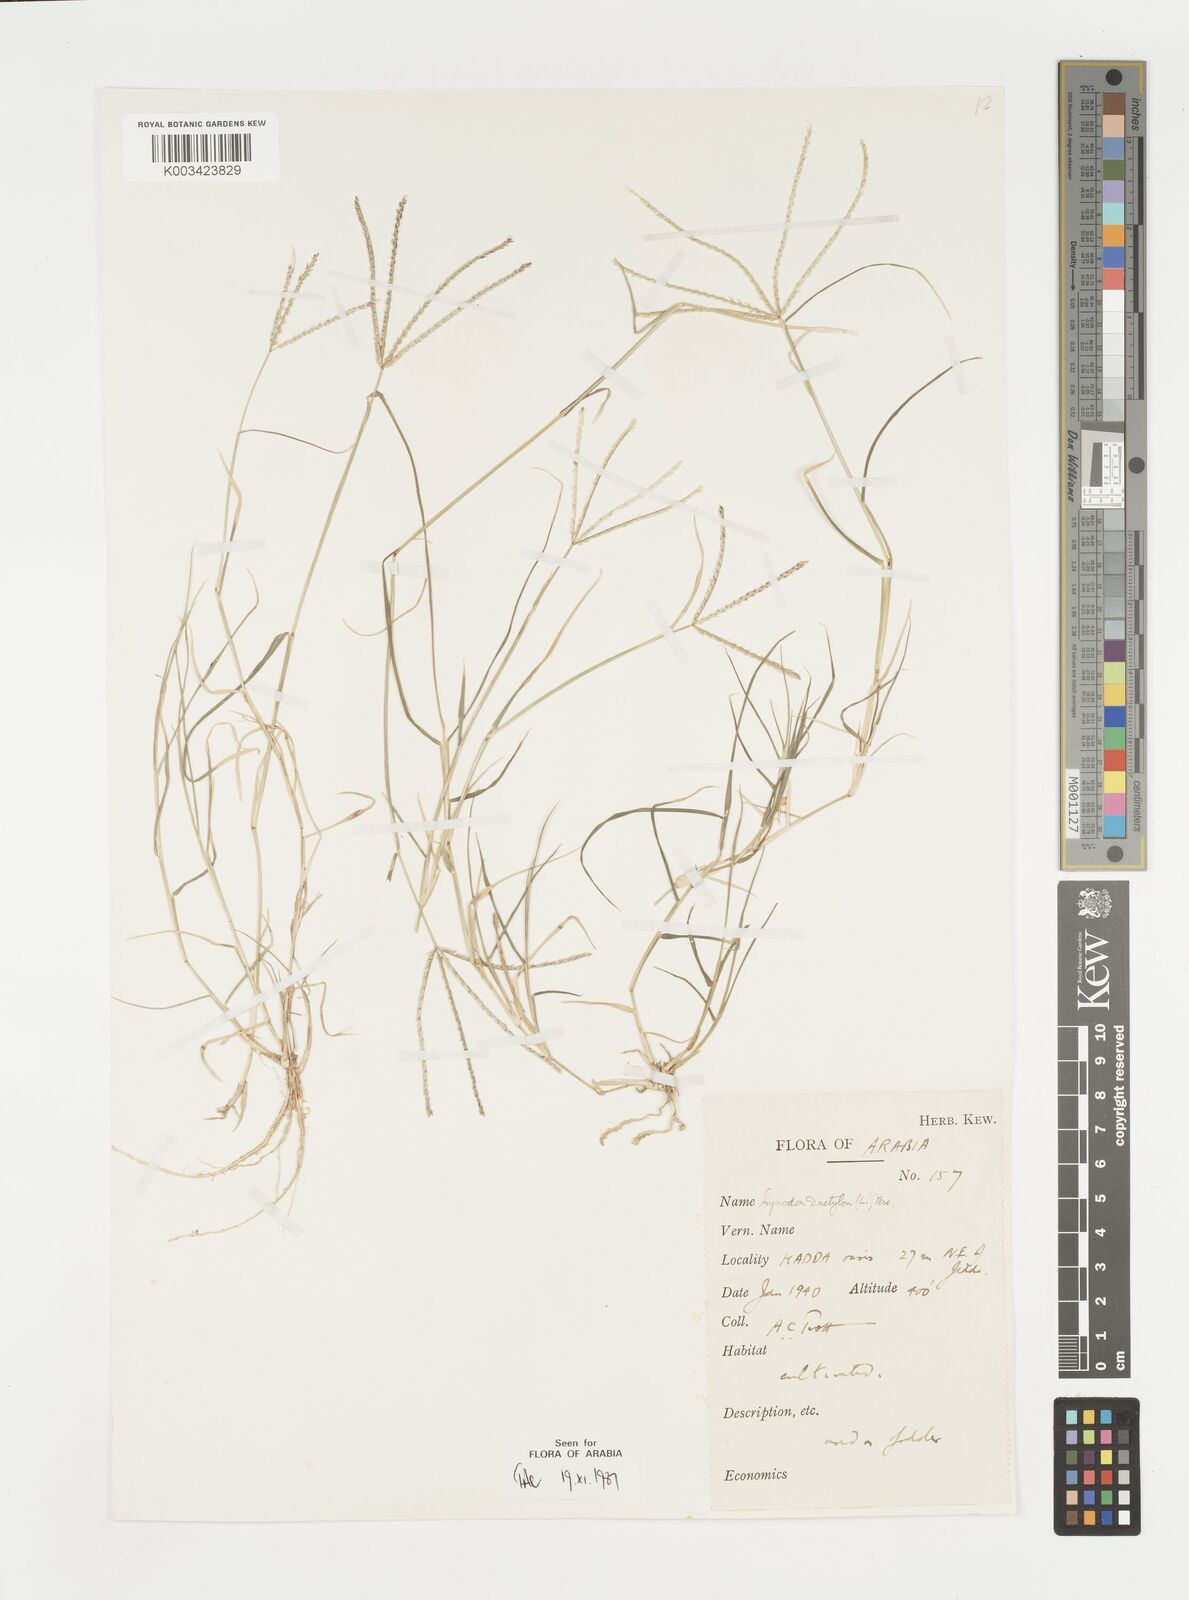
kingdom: Plantae
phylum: Tracheophyta
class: Liliopsida
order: Poales
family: Poaceae
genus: Cynodon
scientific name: Cynodon dactylon
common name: Bermuda grass
